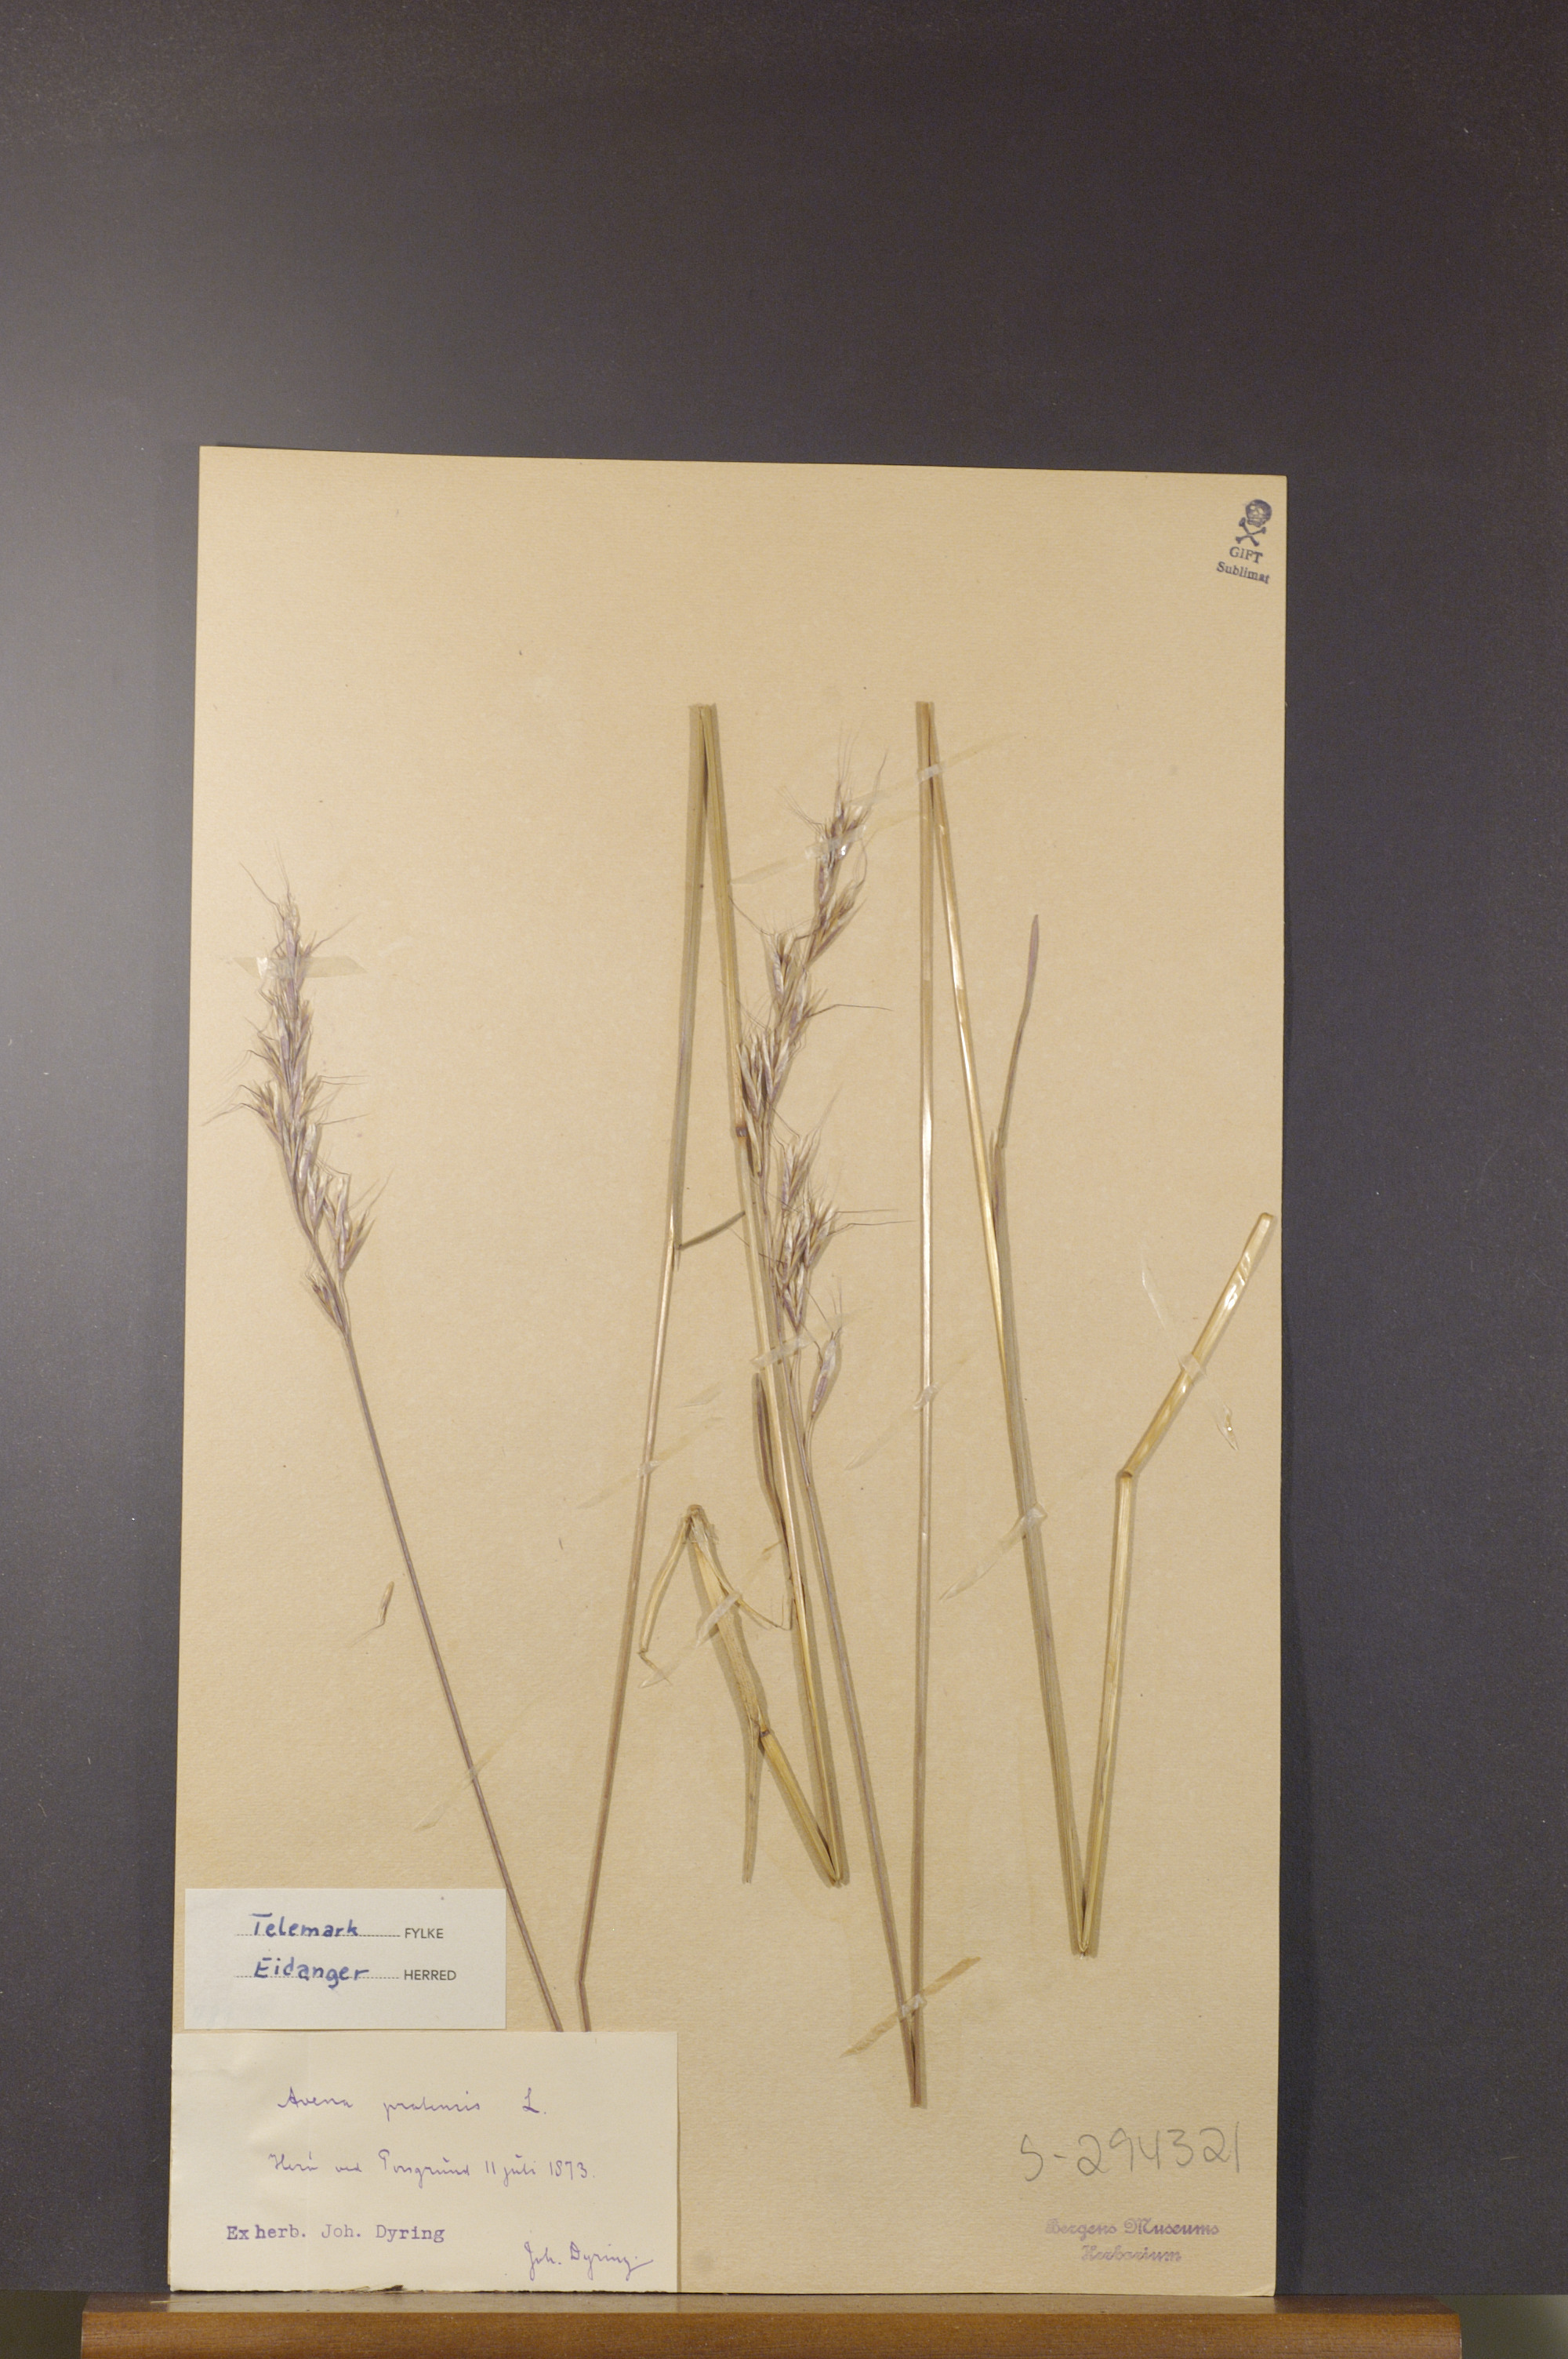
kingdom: Plantae
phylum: Tracheophyta
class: Liliopsida
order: Poales
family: Poaceae
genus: Helictochloa
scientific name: Helictochloa pratensis
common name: Meadow oat grass
